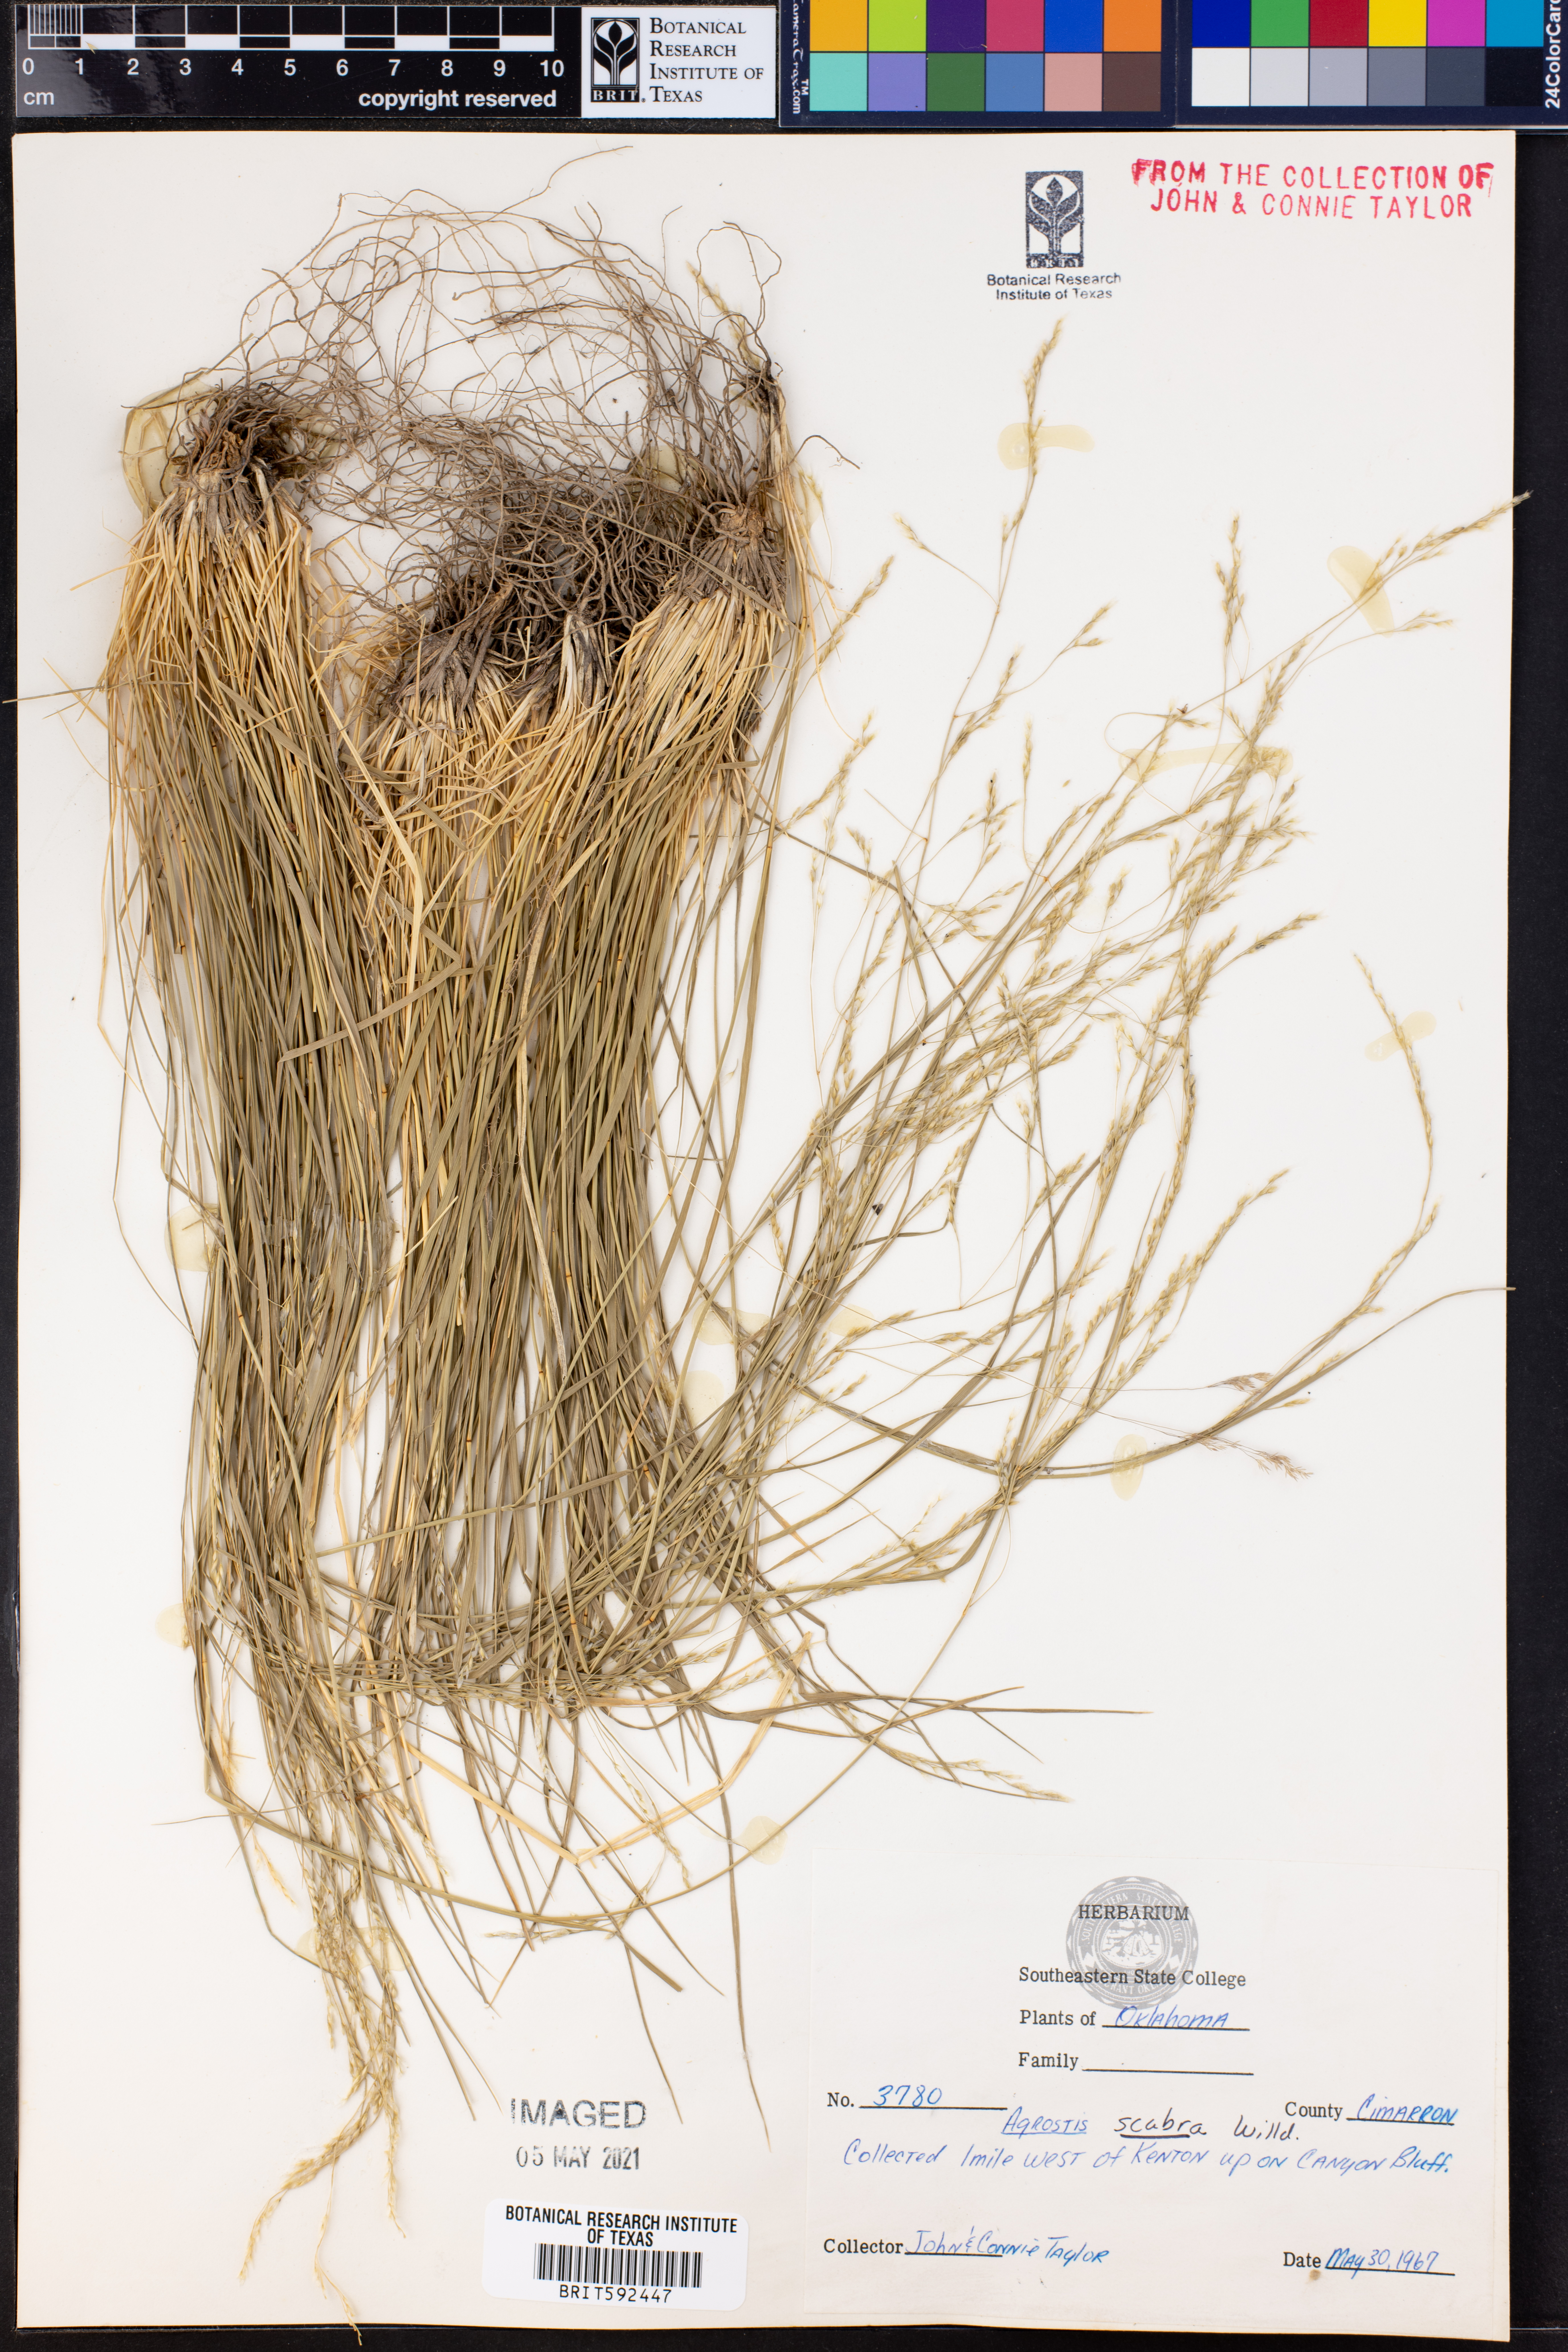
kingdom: Plantae
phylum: Tracheophyta
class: Liliopsida
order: Poales
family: Poaceae
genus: Agrostis
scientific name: Agrostis scabra
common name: Rough bent
